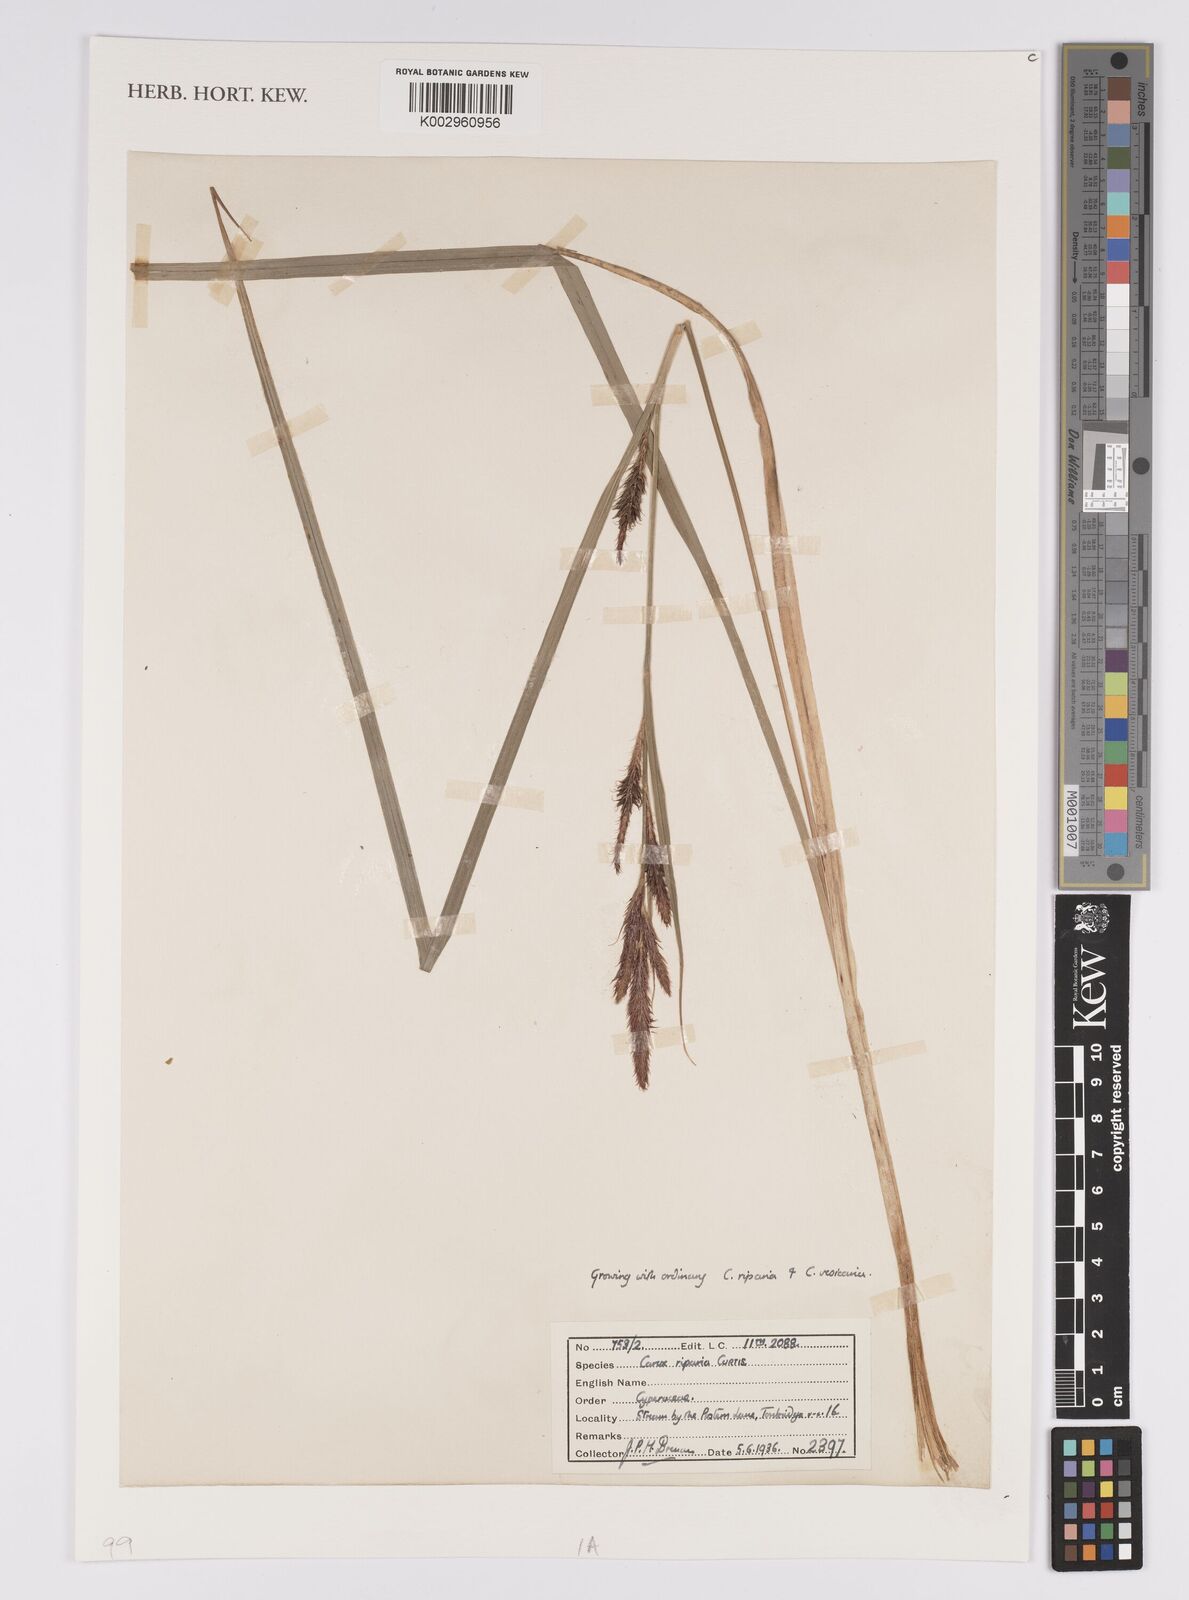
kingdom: Plantae
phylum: Tracheophyta
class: Liliopsida
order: Poales
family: Cyperaceae
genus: Carex
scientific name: Carex riparia
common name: Greater pond-sedge
